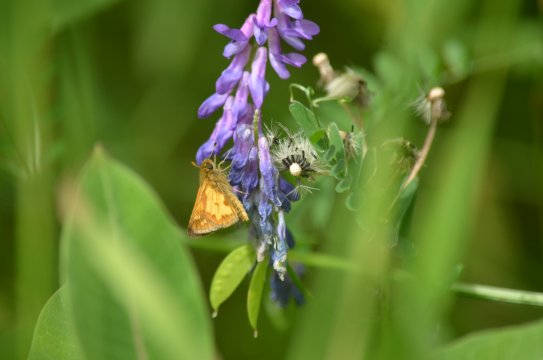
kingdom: Animalia
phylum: Arthropoda
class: Insecta
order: Lepidoptera
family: Hesperiidae
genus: Polites
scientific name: Polites coras
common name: Peck's Skipper
